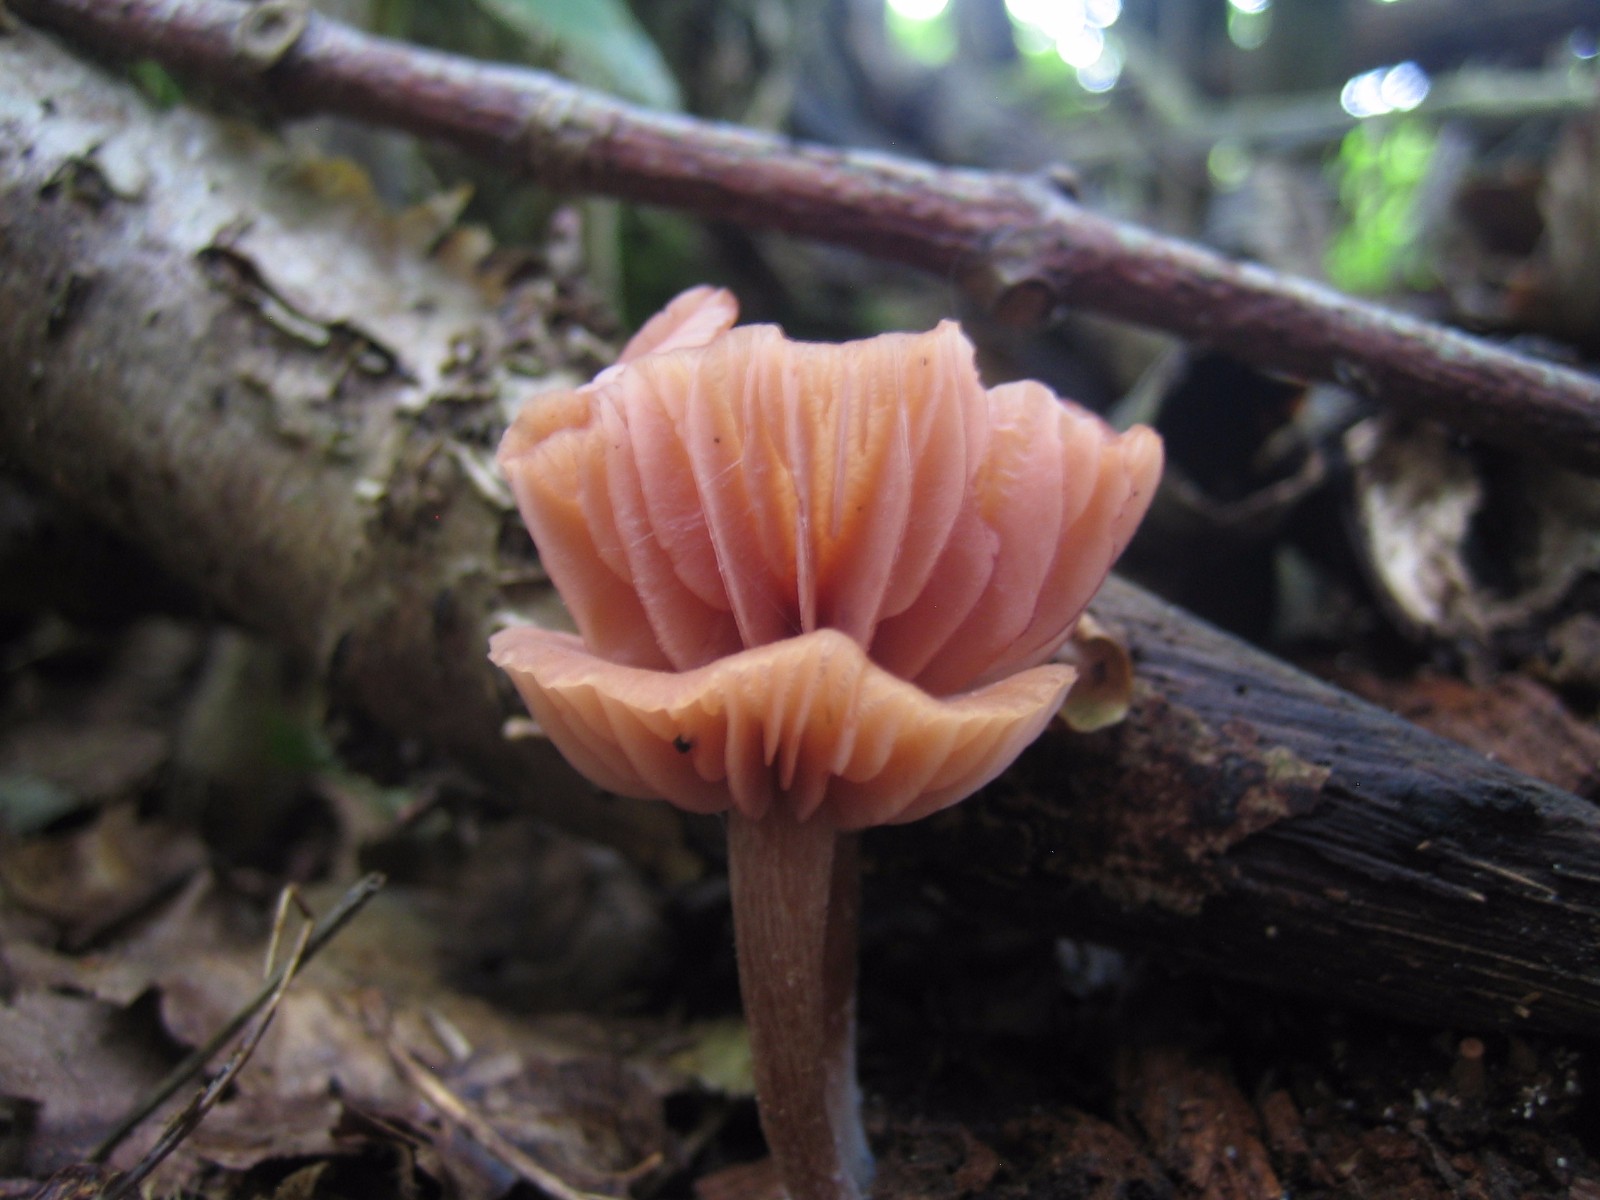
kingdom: Fungi
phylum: Basidiomycota
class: Agaricomycetes
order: Agaricales
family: Hydnangiaceae
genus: Laccaria
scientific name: Laccaria laccata
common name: rød ametysthat
